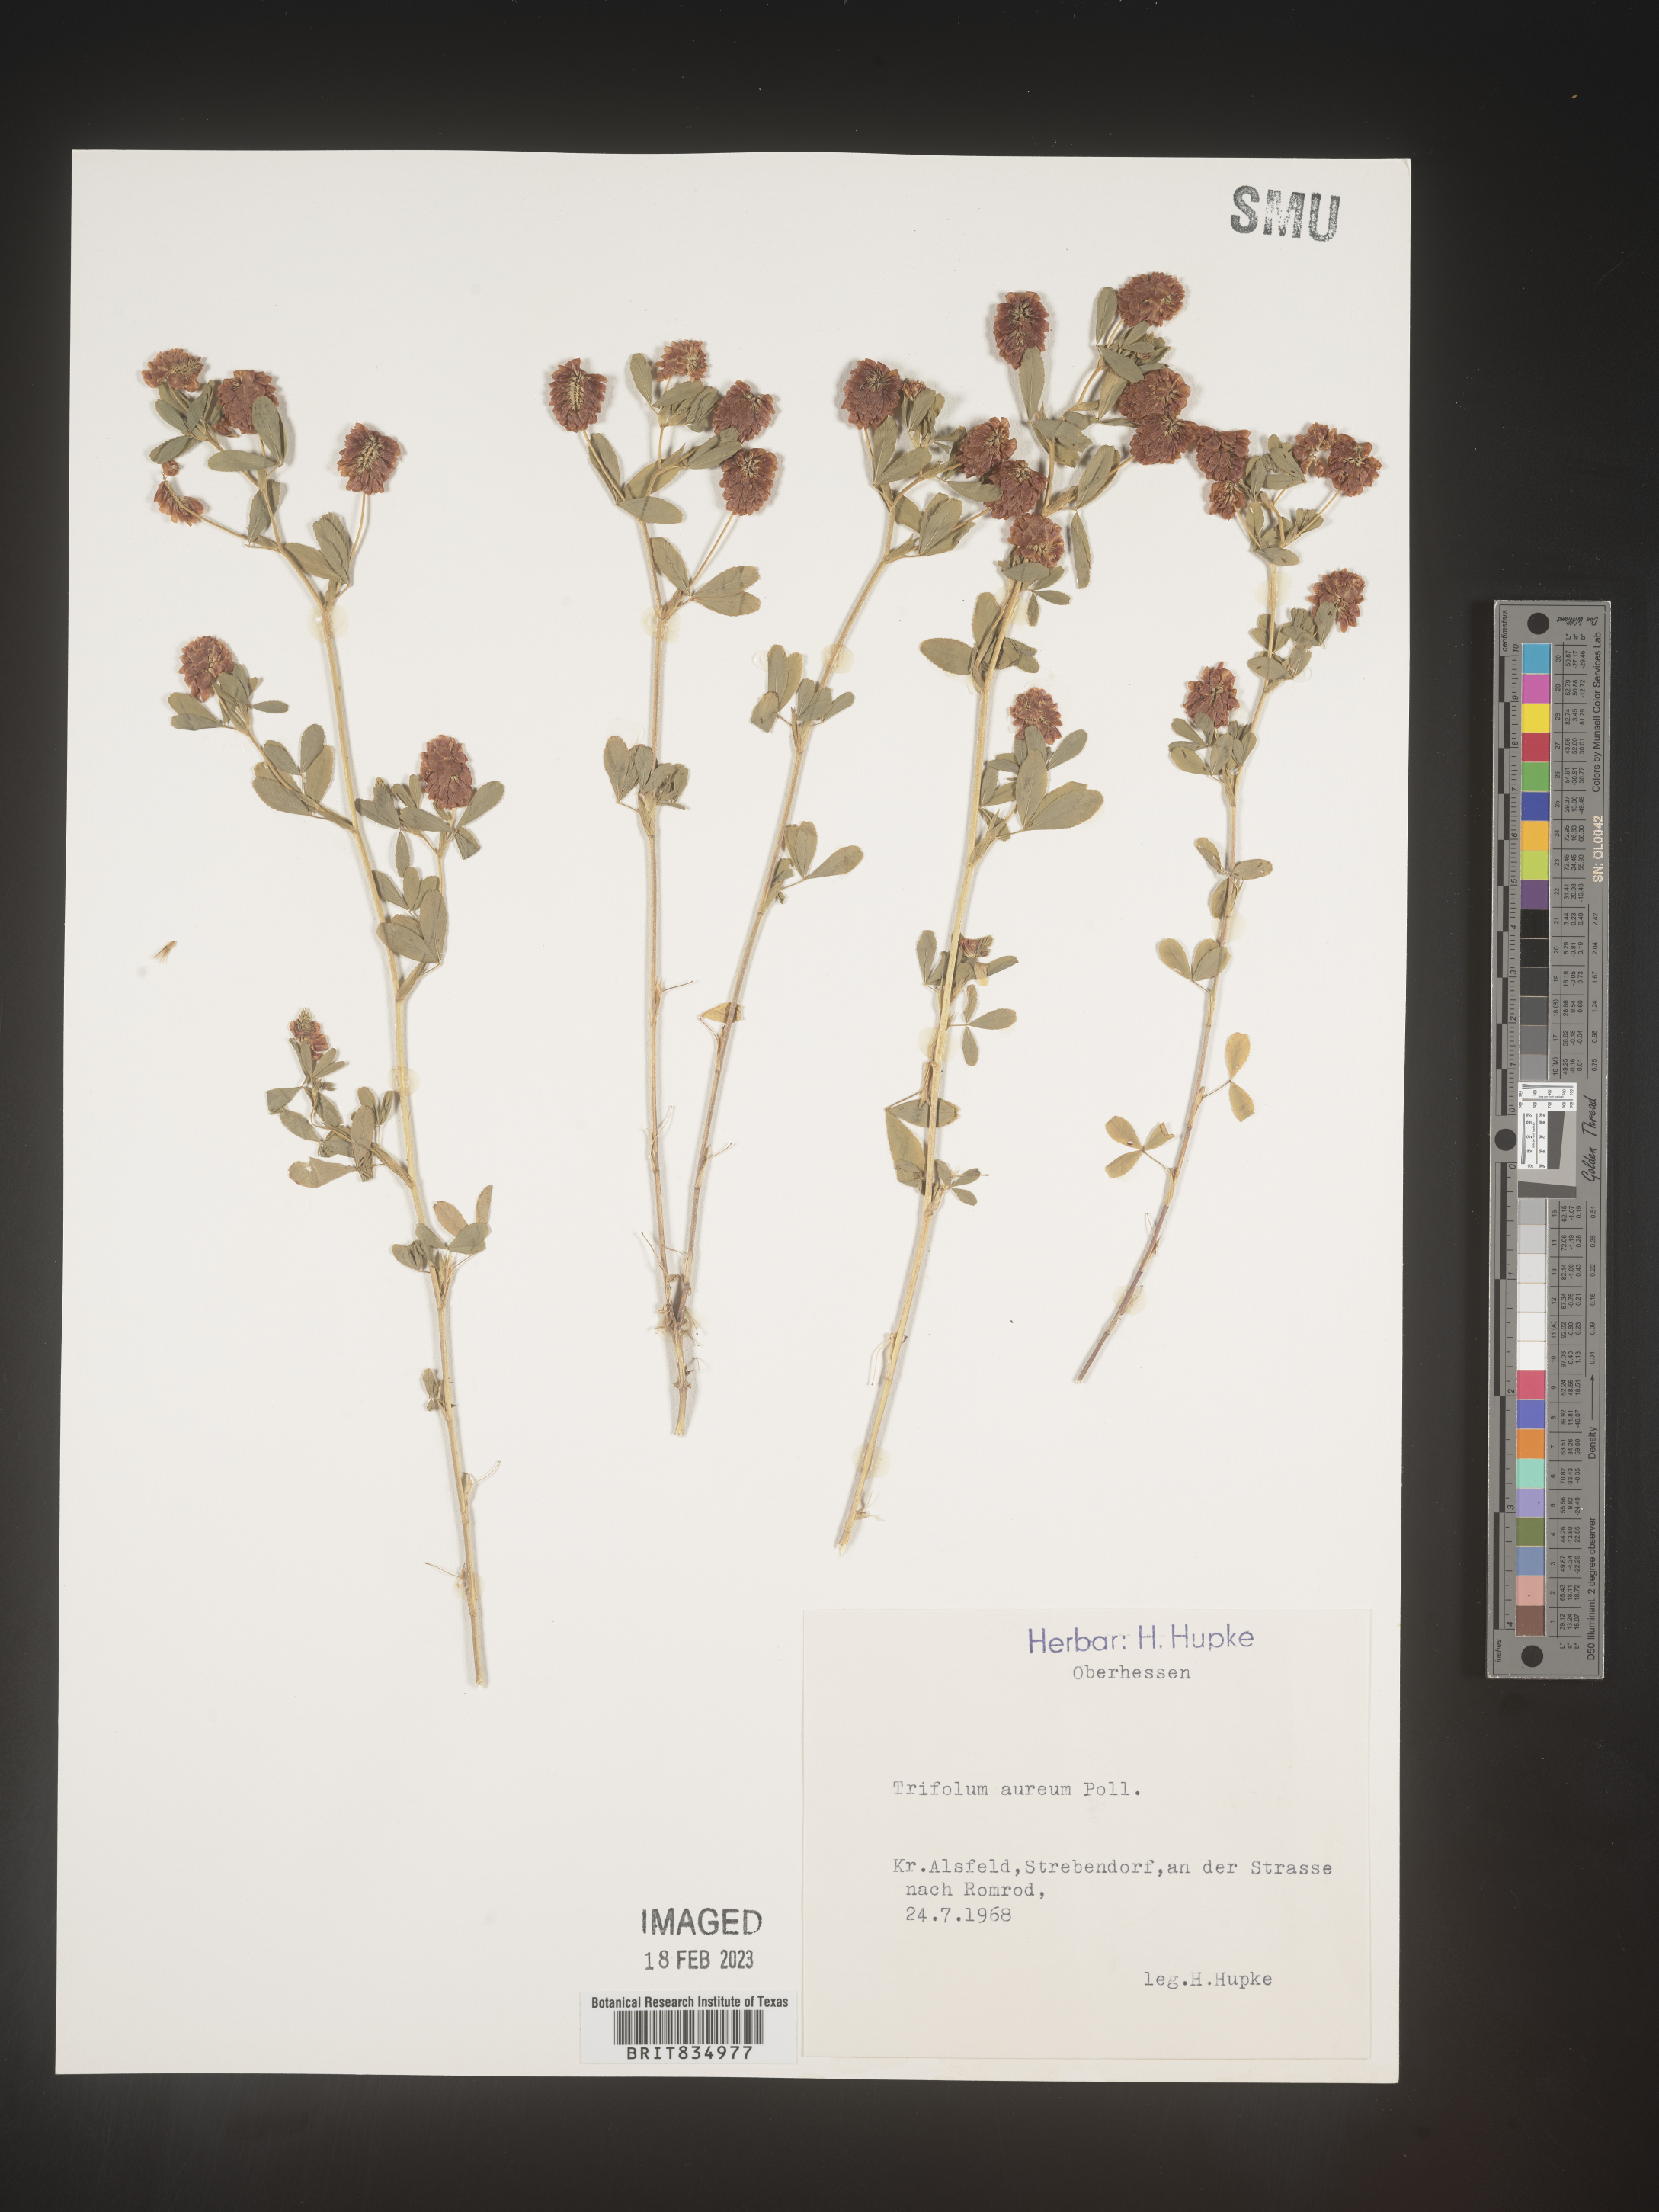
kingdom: Plantae
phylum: Tracheophyta
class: Magnoliopsida
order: Fabales
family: Fabaceae
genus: Trifolium
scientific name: Trifolium
